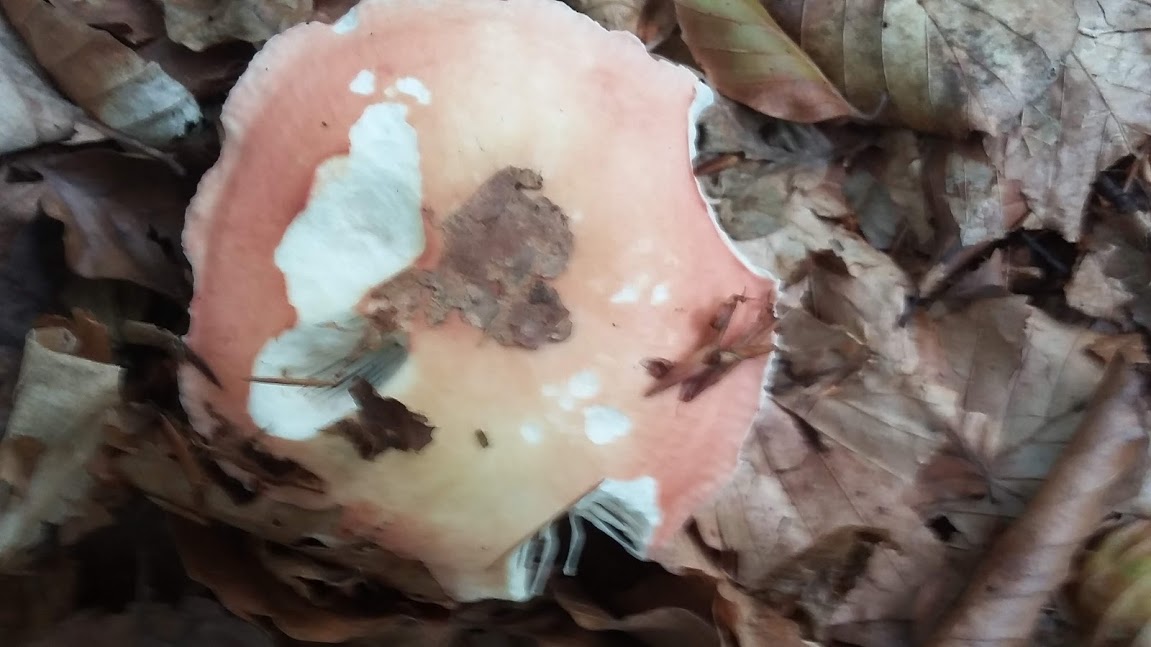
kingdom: Fungi
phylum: Basidiomycota
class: Agaricomycetes
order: Russulales
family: Russulaceae
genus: Russula
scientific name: Russula
